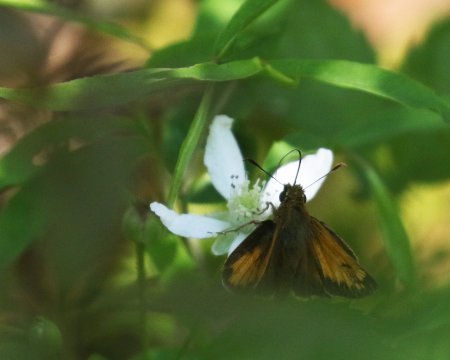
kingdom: Animalia
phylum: Arthropoda
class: Insecta
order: Lepidoptera
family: Hesperiidae
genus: Lon
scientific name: Lon hobomok
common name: Hobomok Skipper
